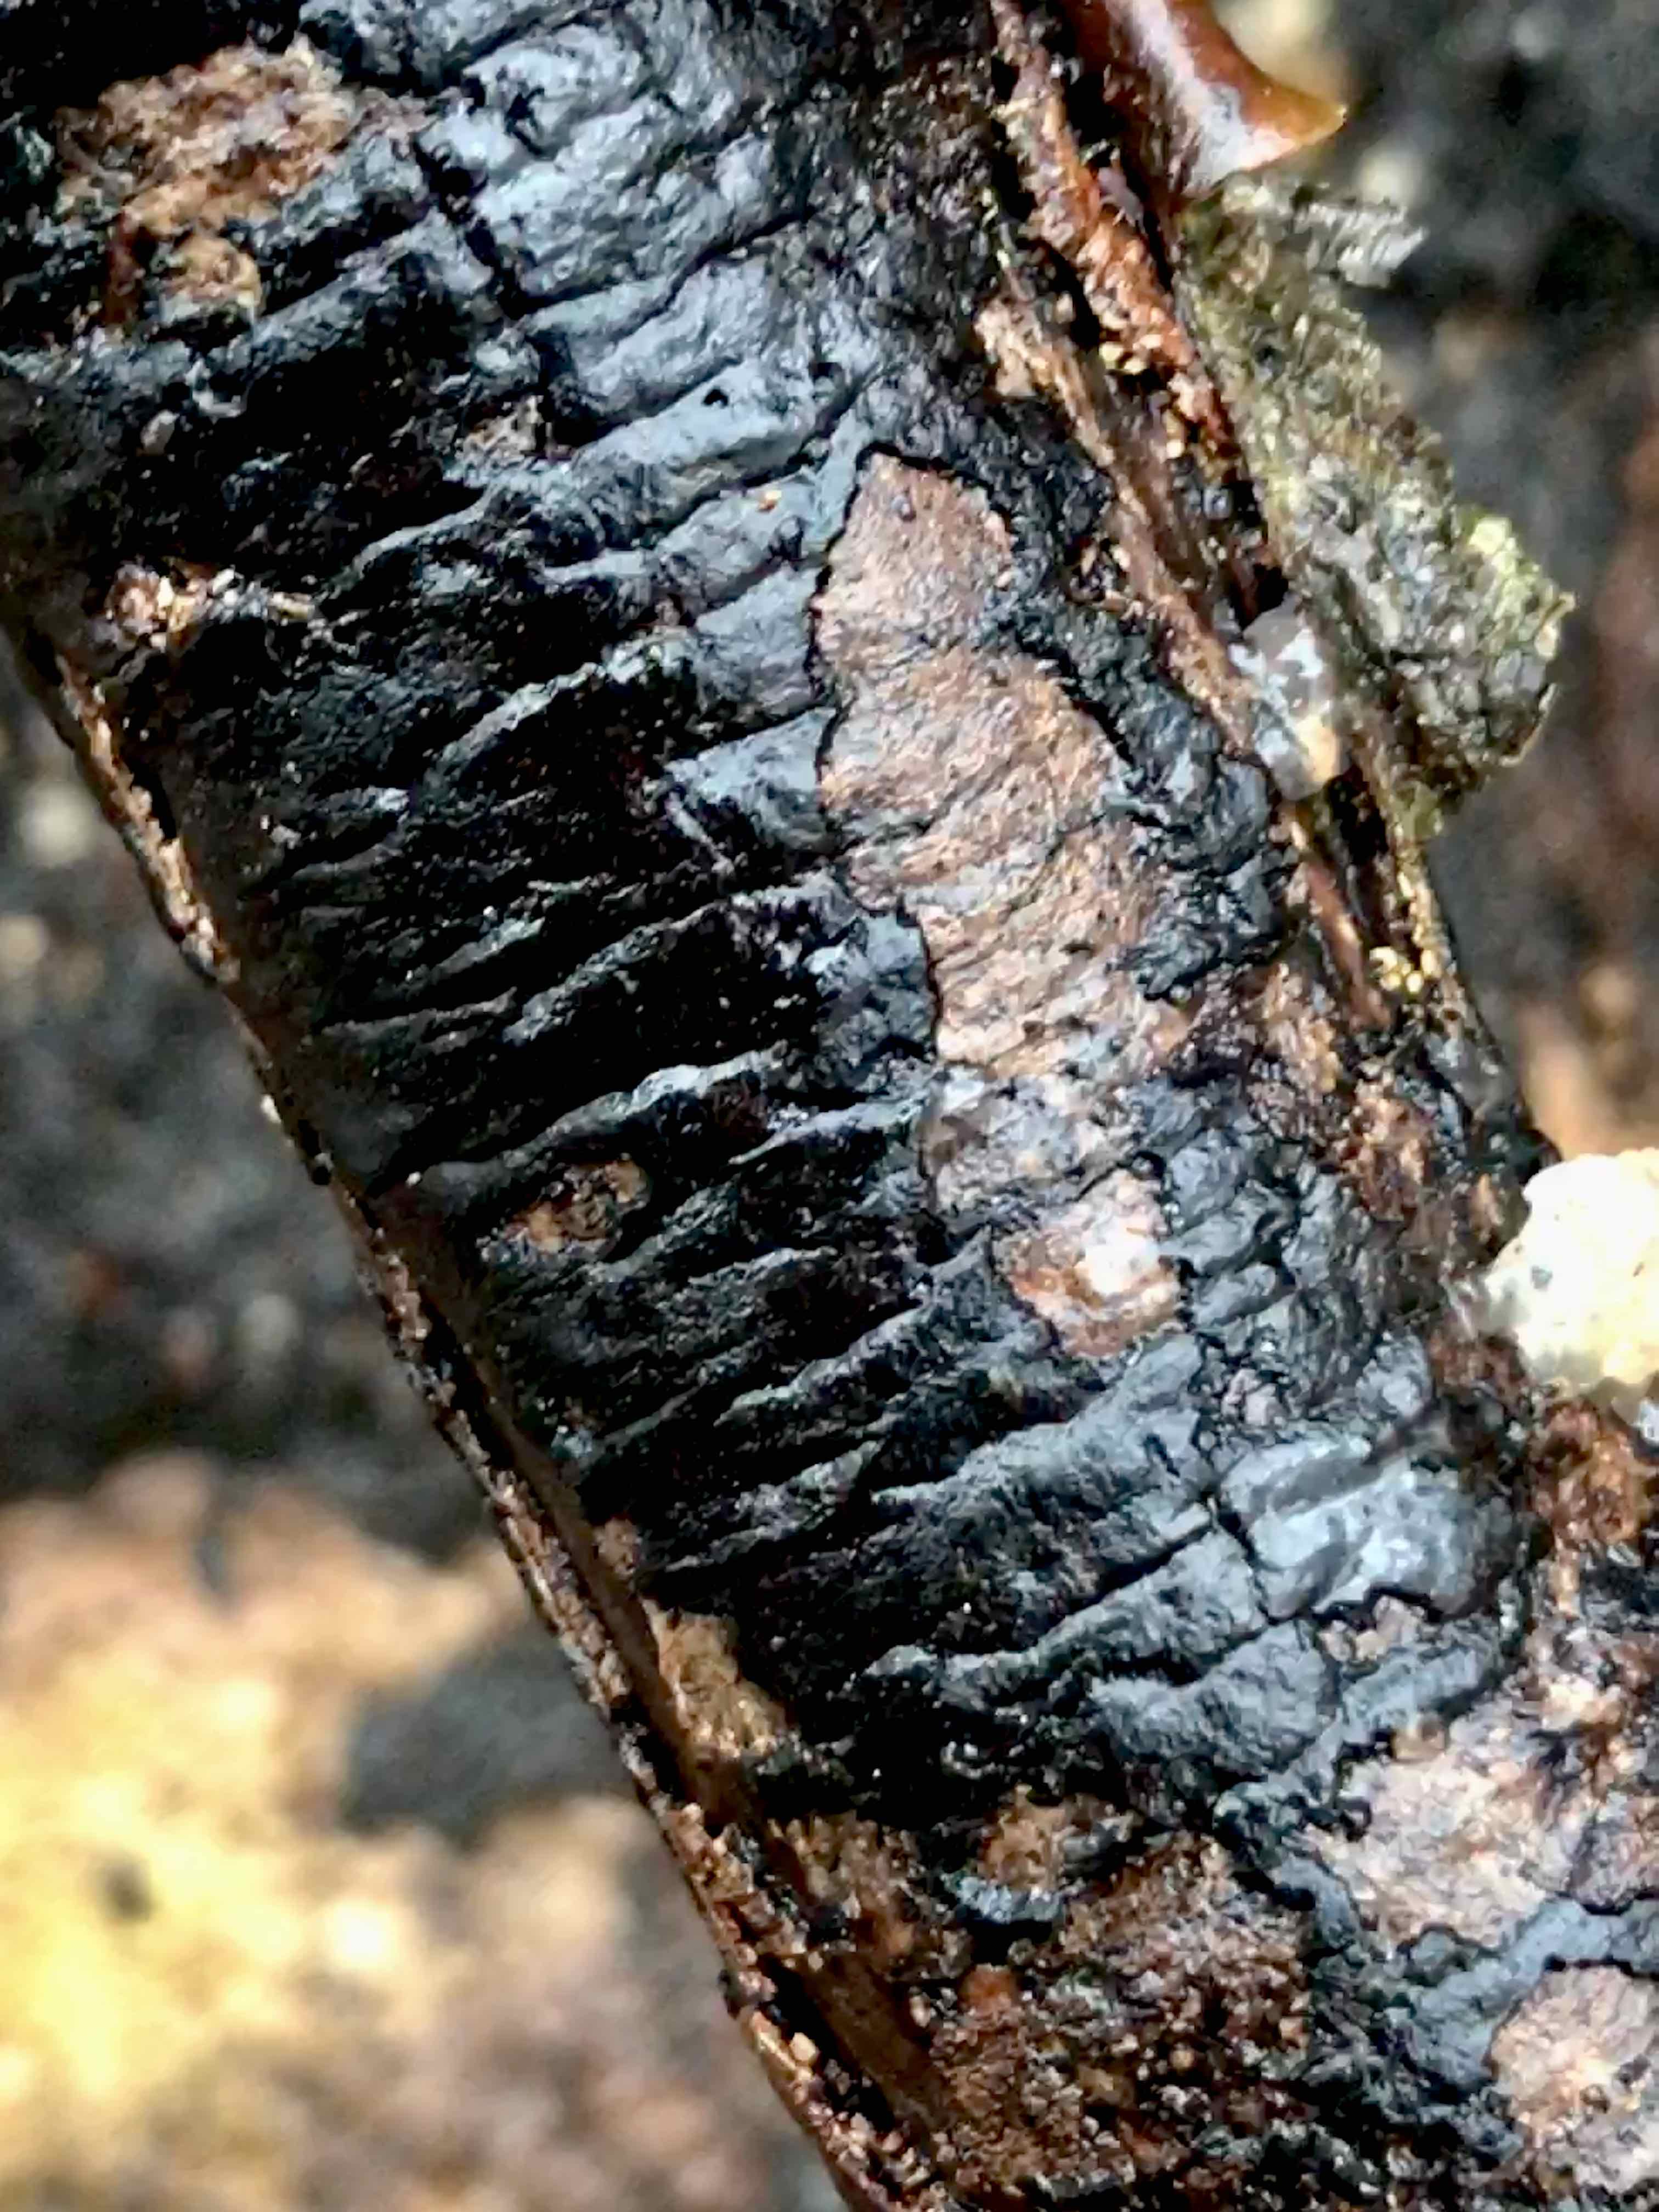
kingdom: Fungi
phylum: Ascomycota
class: Sordariomycetes
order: Xylariales
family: Diatrypaceae
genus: Diatrype
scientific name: Diatrype decorticata
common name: barksprænger-kulskorpe
